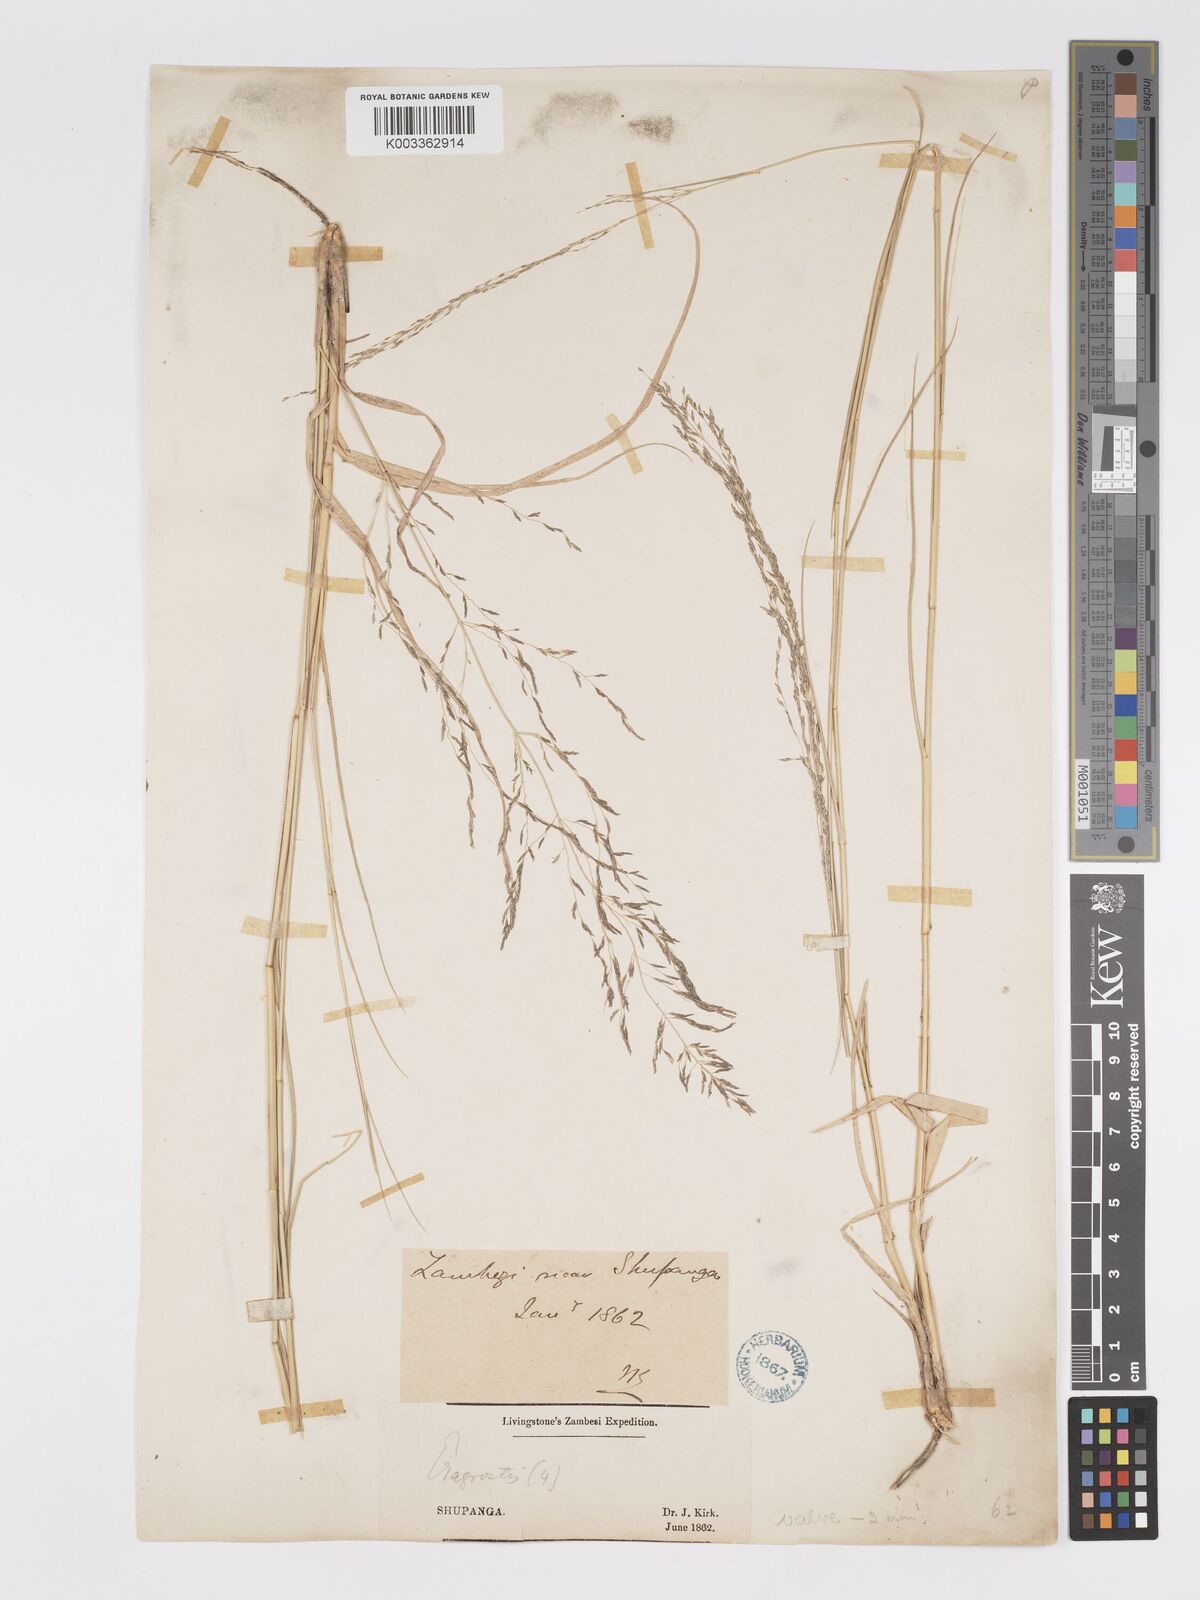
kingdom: Plantae
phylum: Tracheophyta
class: Liliopsida
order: Poales
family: Poaceae
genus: Eragrostis
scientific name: Eragrostis cylindriflora
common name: Cylinderflower lovegrass
